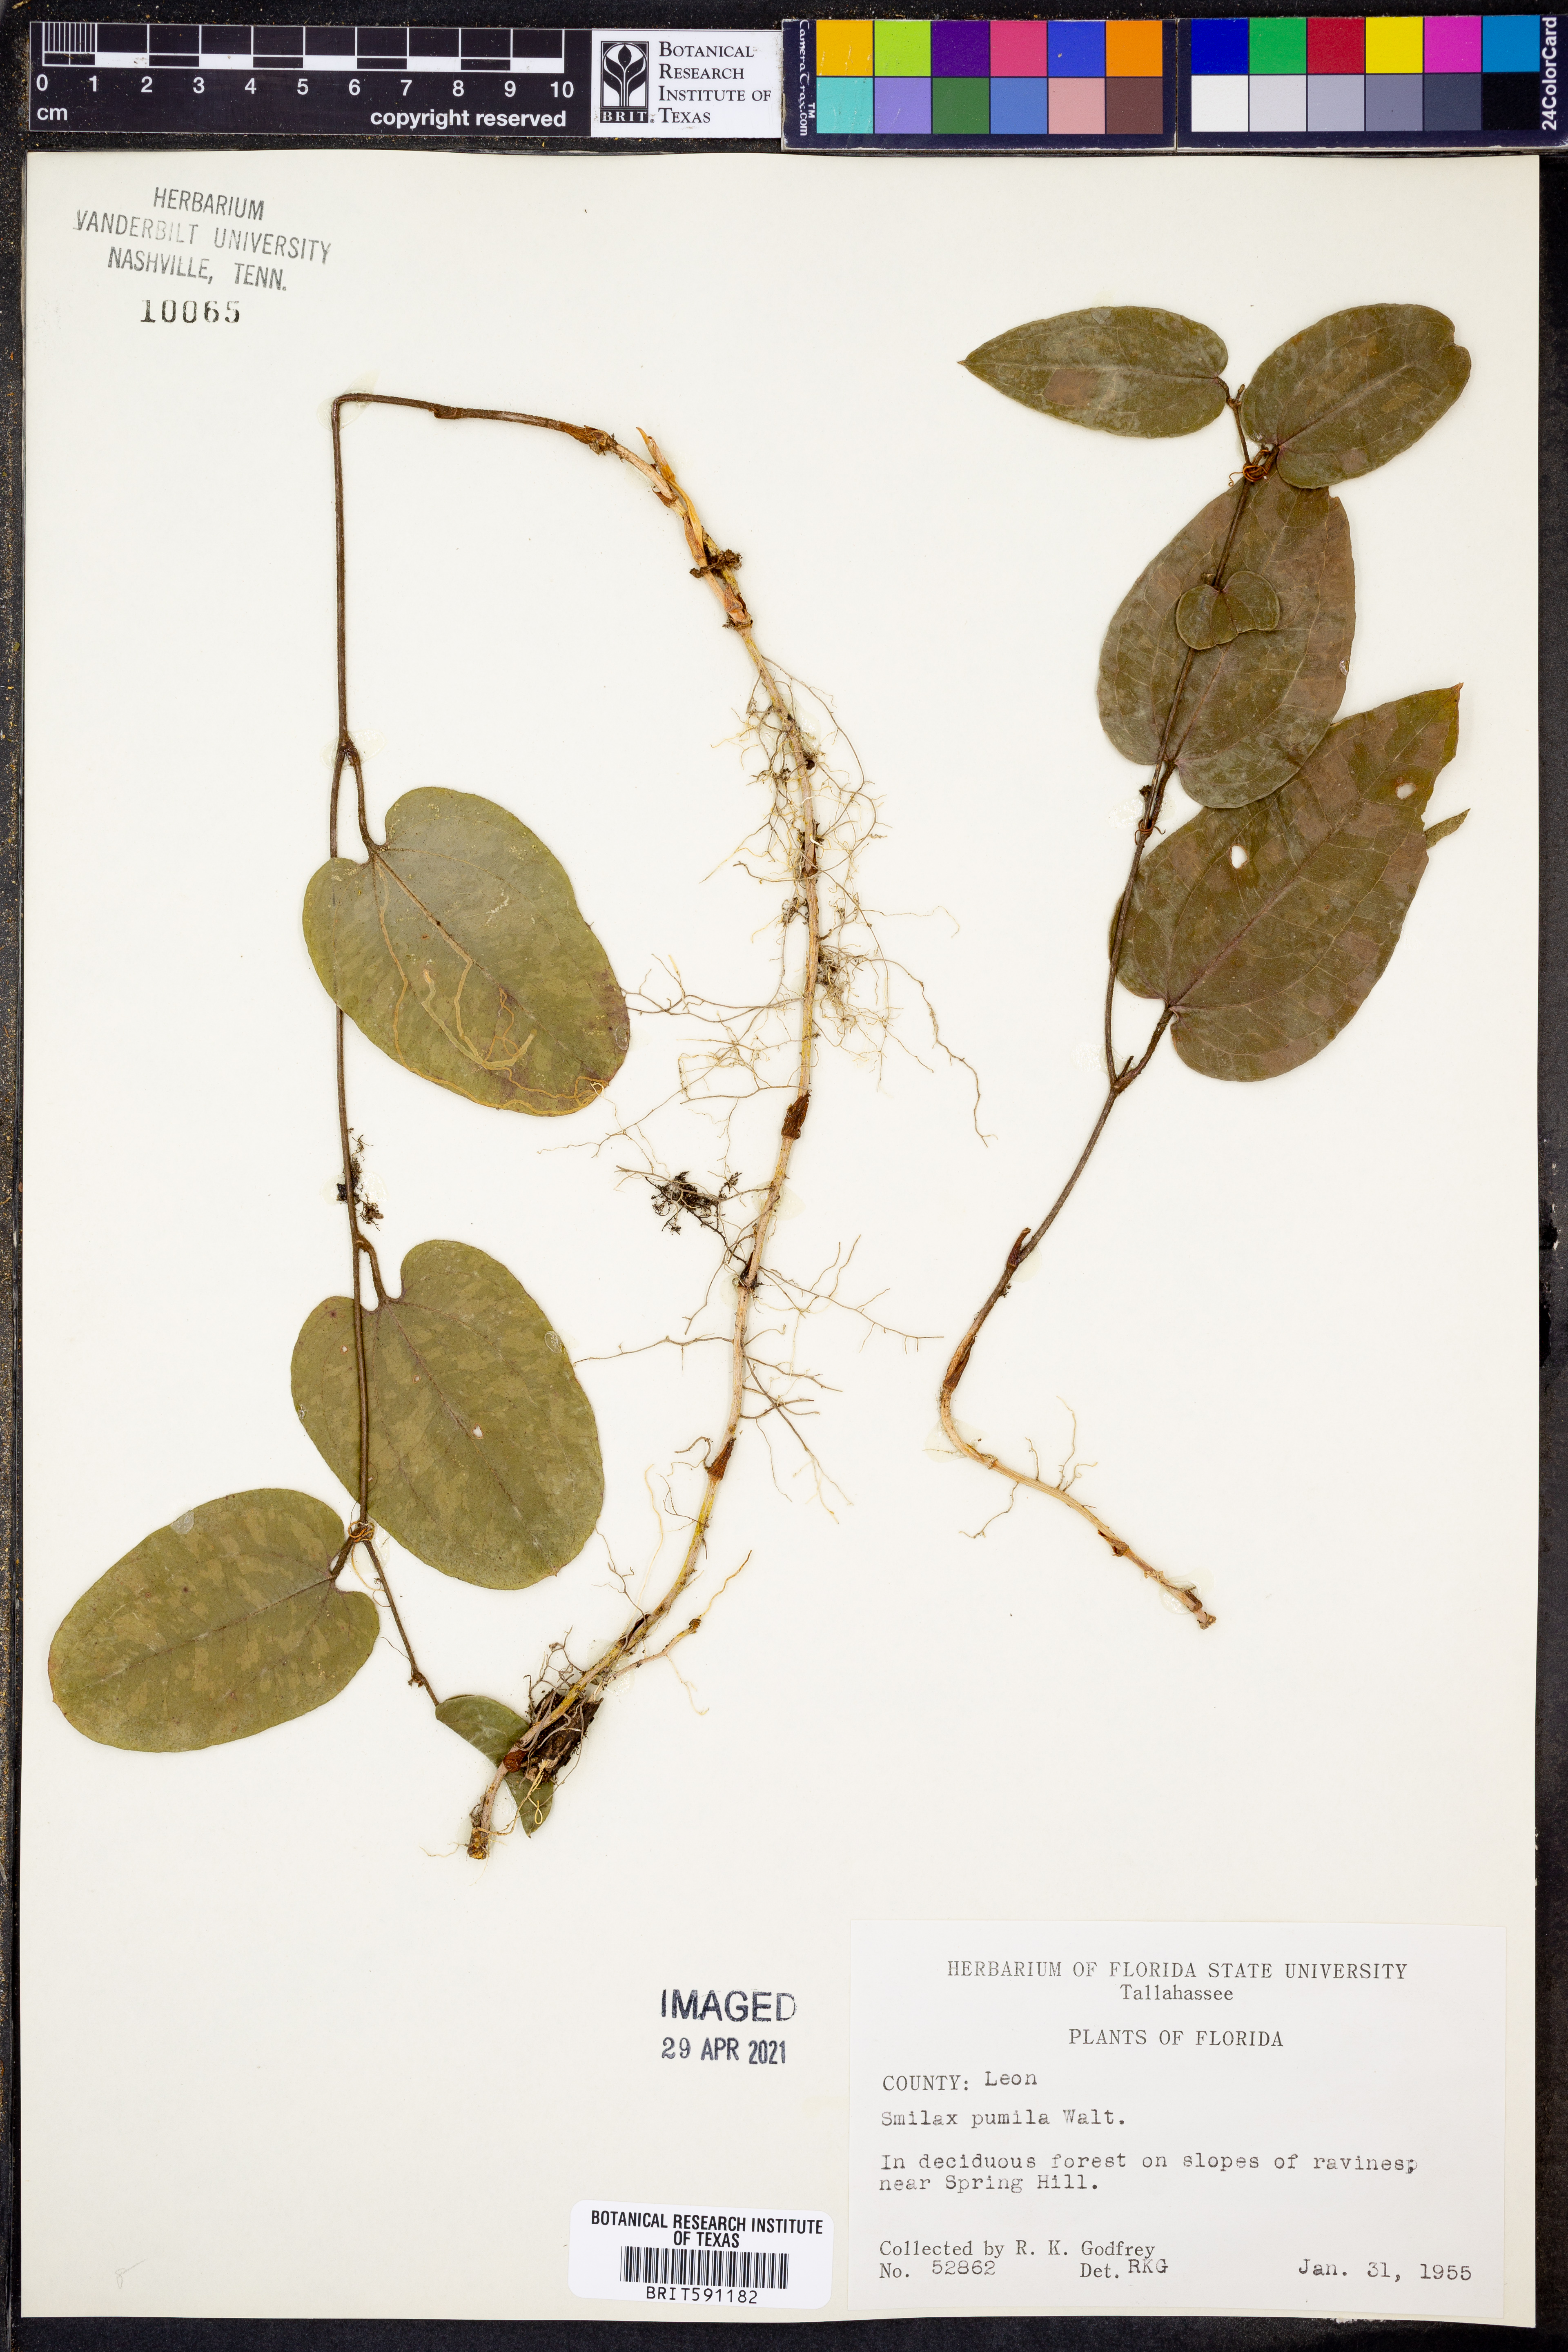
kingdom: Plantae
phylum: Tracheophyta
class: Liliopsida
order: Liliales
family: Smilacaceae
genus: Smilax
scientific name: Smilax pumila
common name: Sarsaparilla-vine
